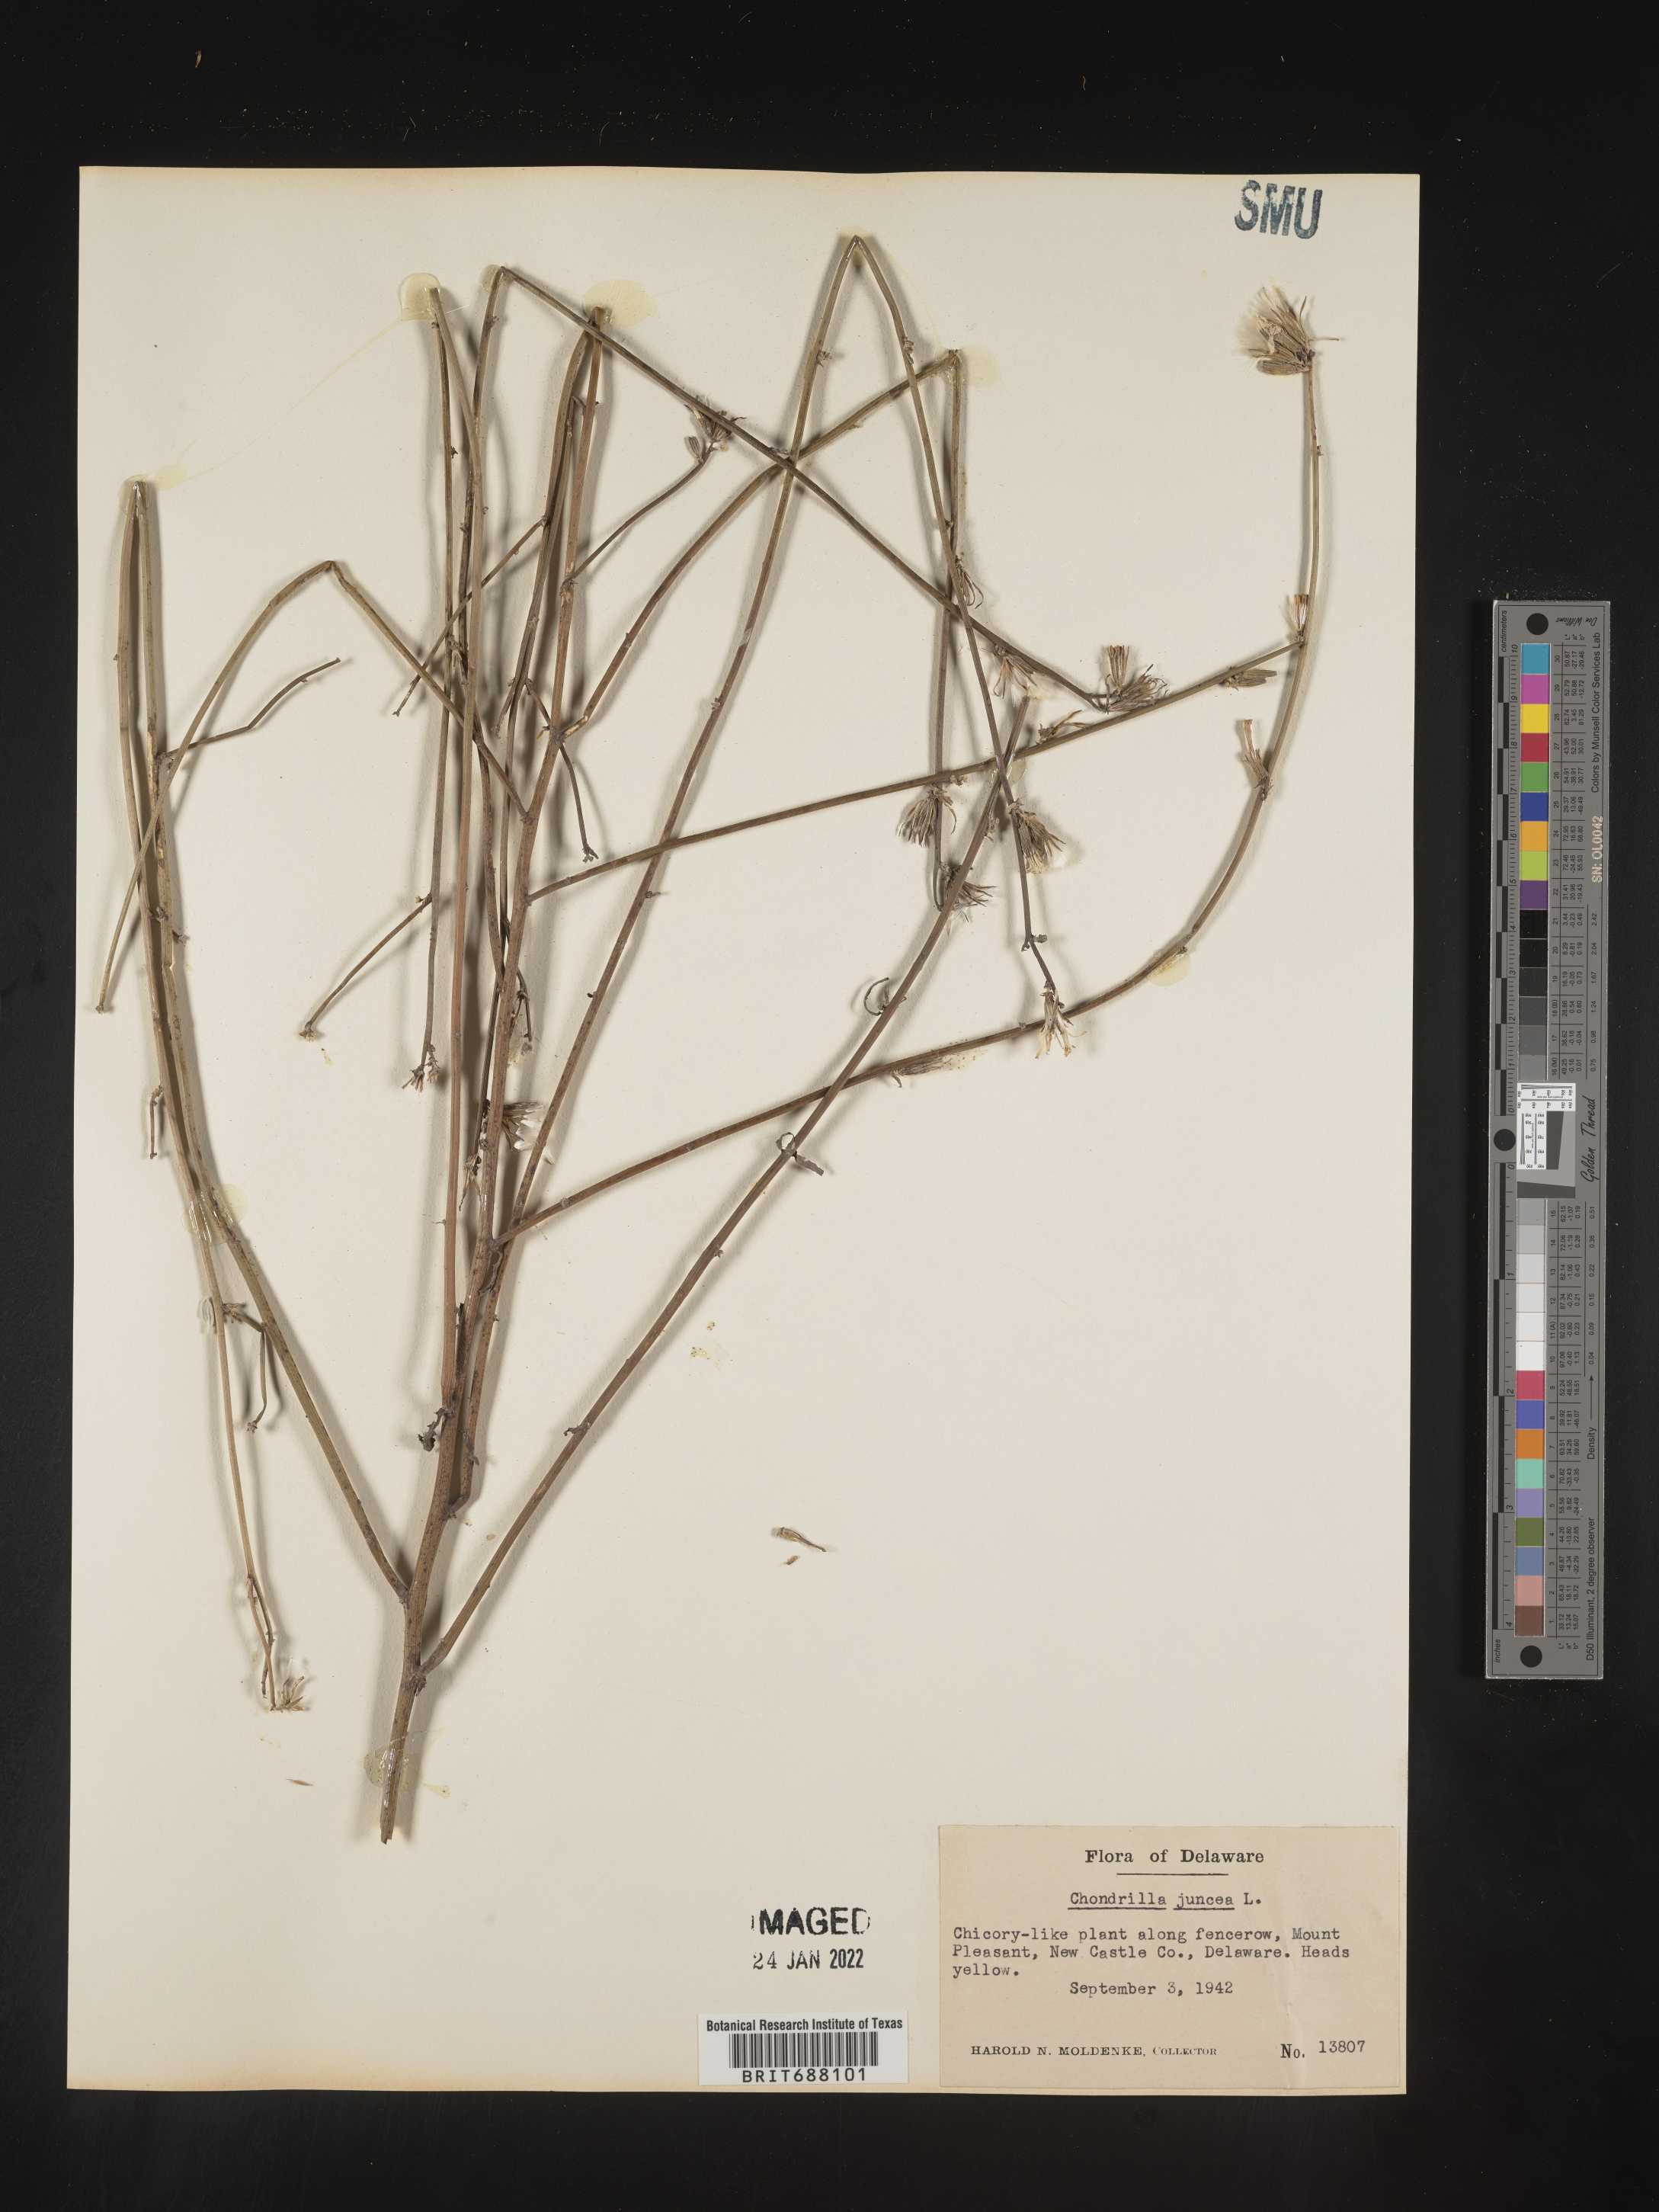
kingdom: Plantae
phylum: Tracheophyta
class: Magnoliopsida
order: Asterales
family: Asteraceae
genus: Chondrilla
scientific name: Chondrilla
